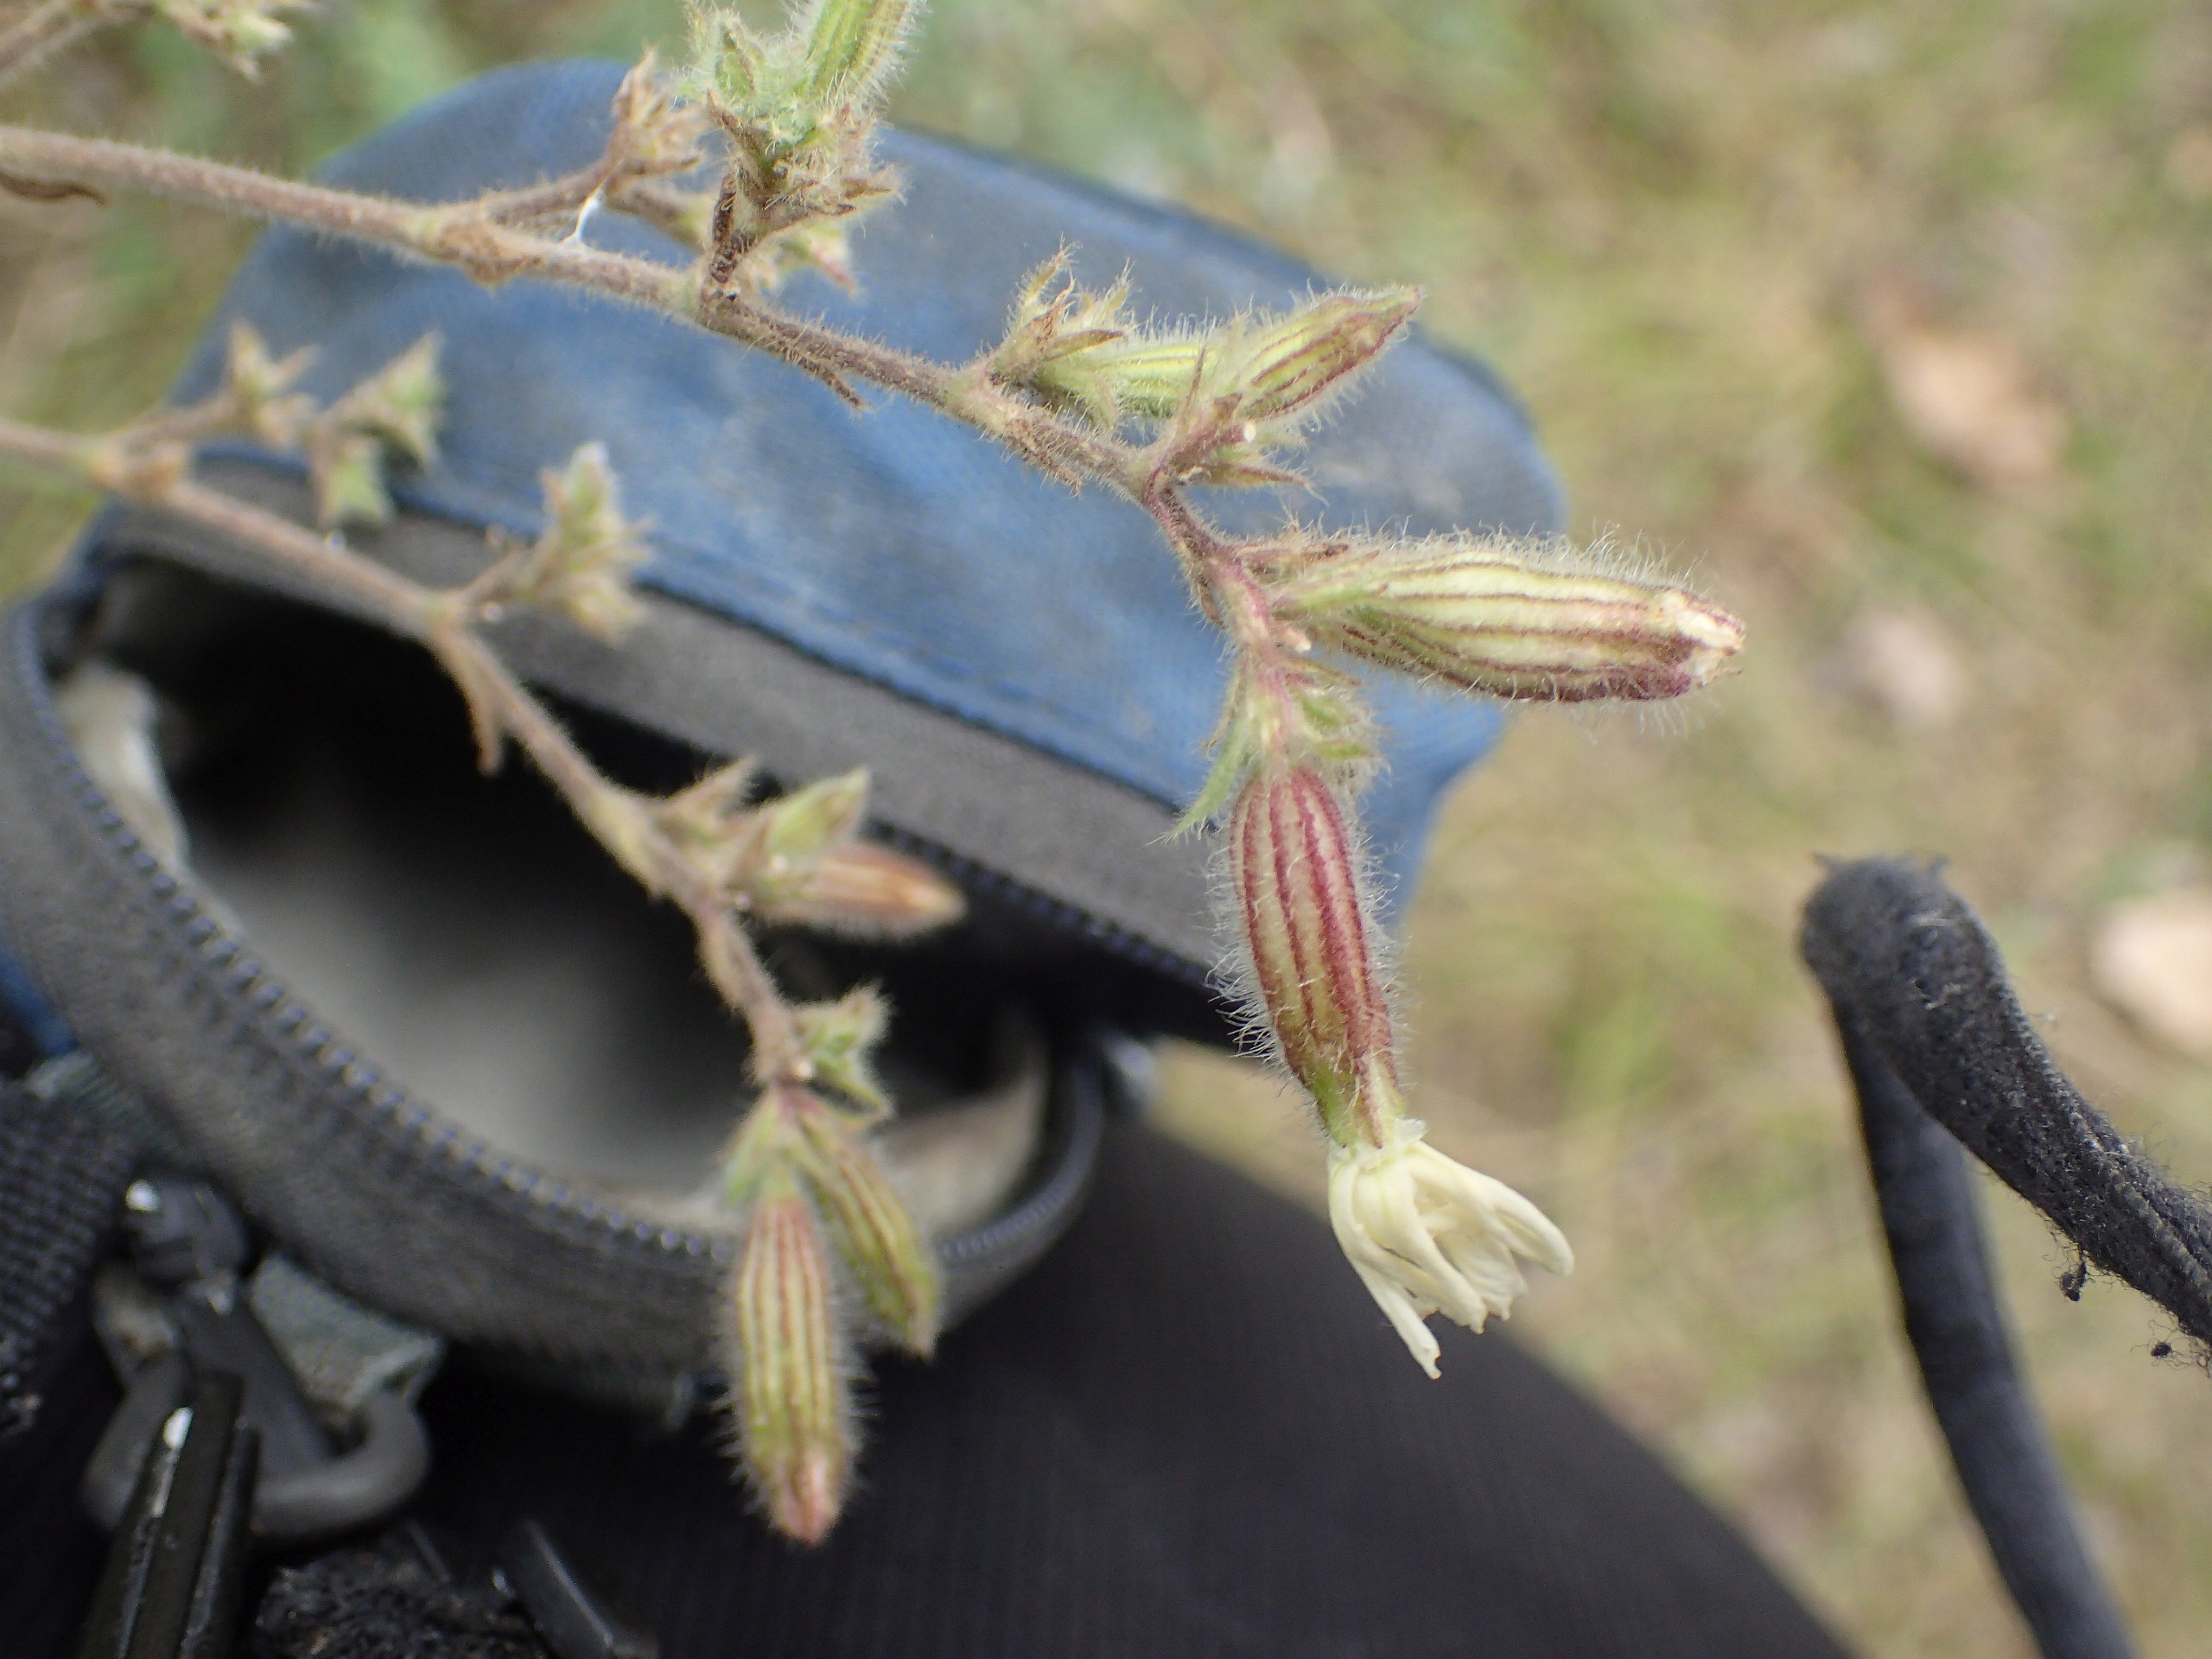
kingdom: Plantae
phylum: Tracheophyta
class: Magnoliopsida
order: Caryophyllales
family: Caryophyllaceae
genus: Silene
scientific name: Silene latifolia
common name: Aftenpragtstjerne
